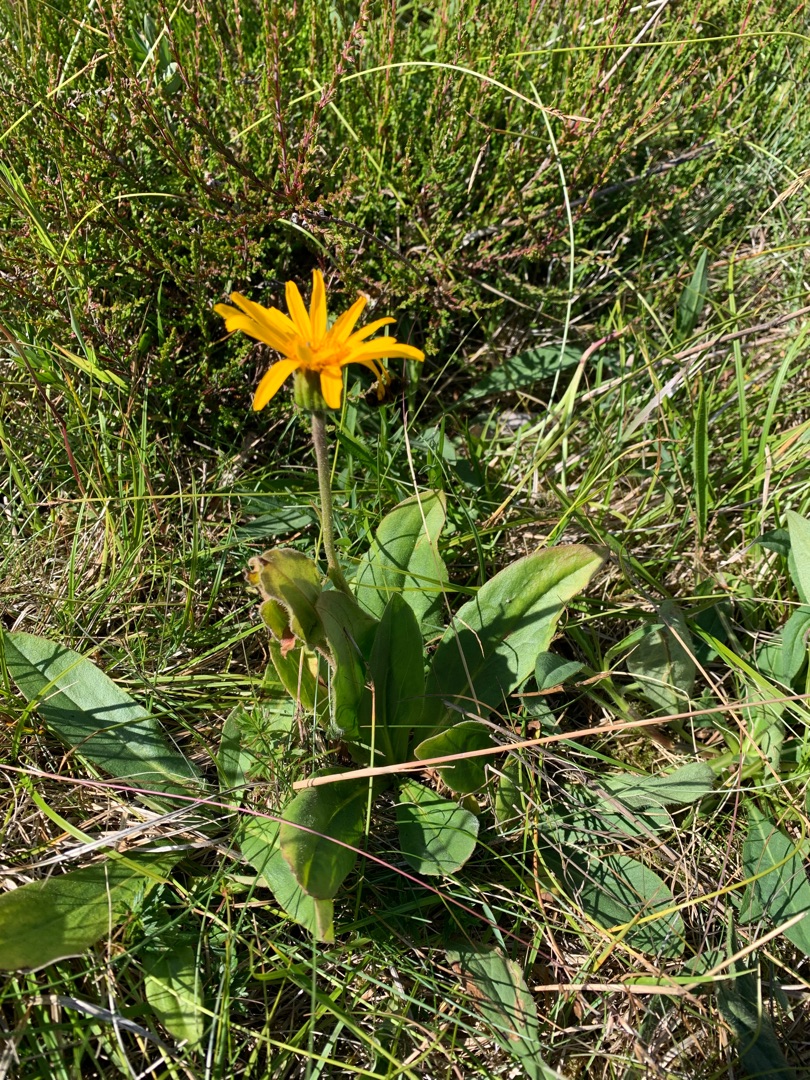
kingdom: Plantae
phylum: Tracheophyta
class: Magnoliopsida
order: Asterales
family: Asteraceae
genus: Arnica
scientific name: Arnica montana
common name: Guldblomme
